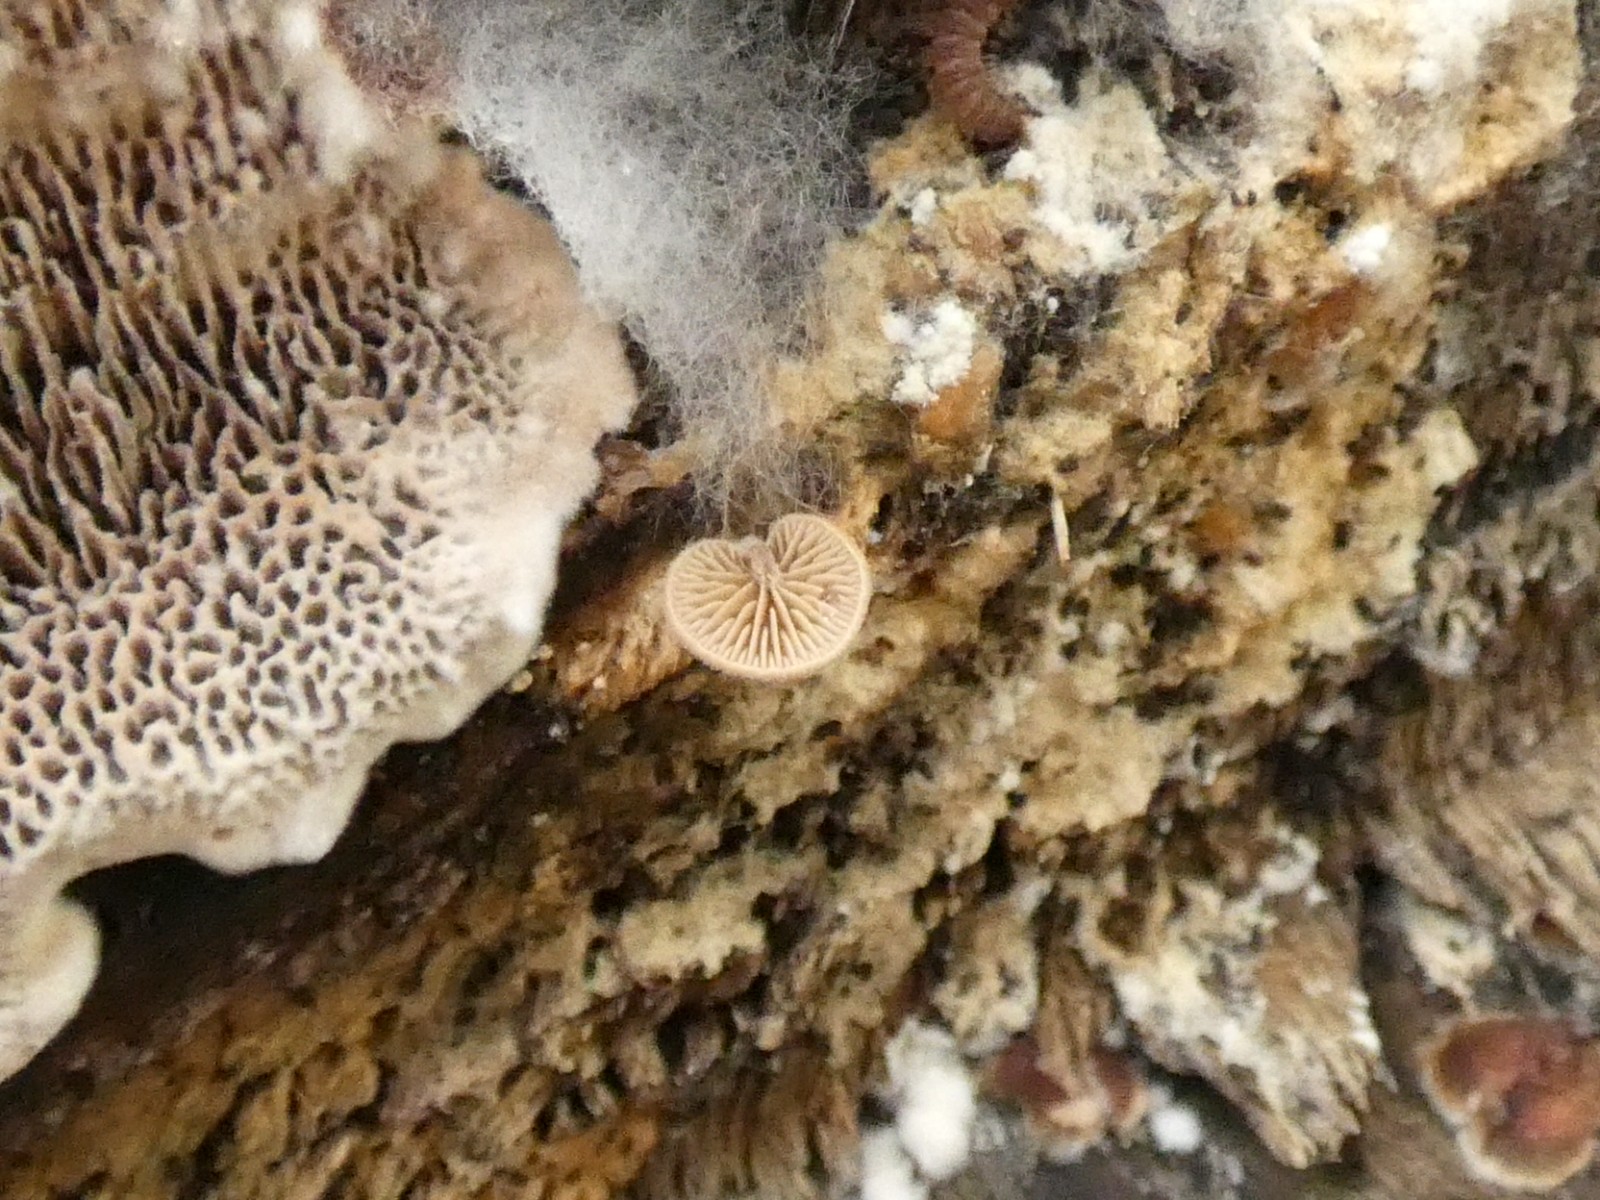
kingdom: Fungi
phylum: Basidiomycota
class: Agaricomycetes
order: Agaricales
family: Strophariaceae
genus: Deconica
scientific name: Deconica horizontalis
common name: ved-stråhat
